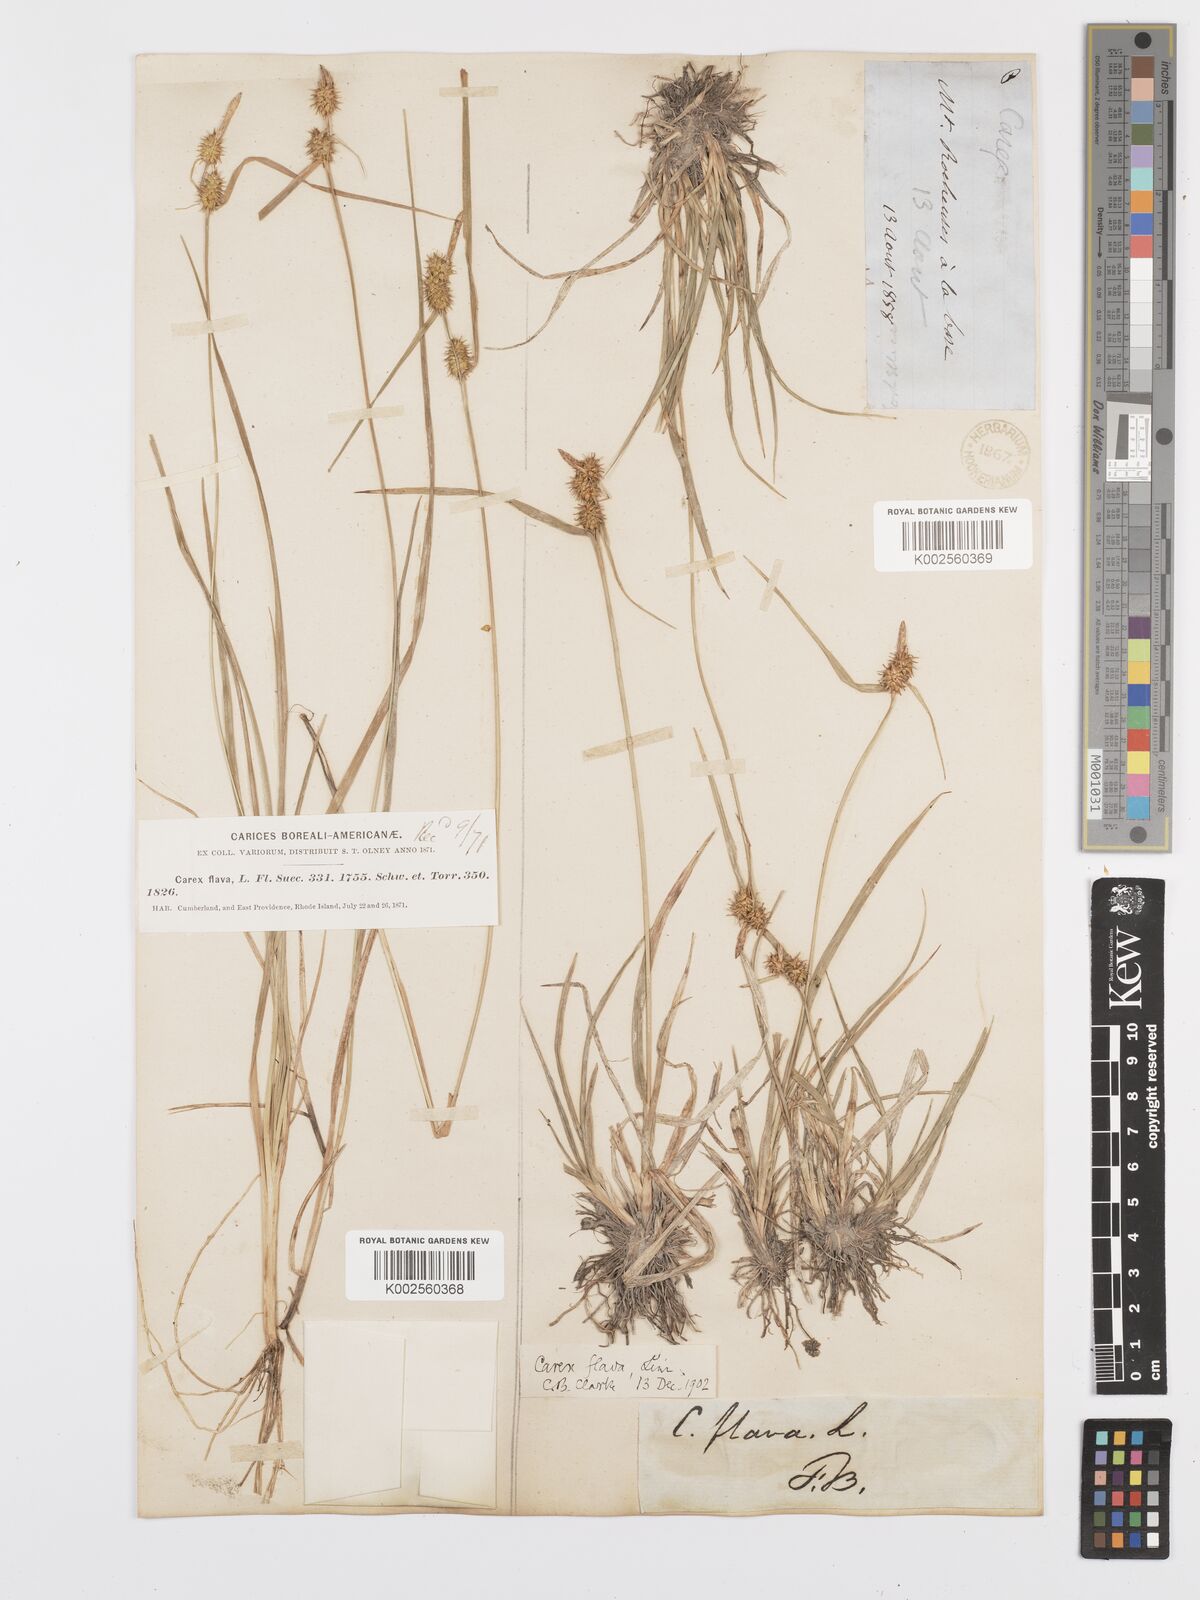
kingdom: Plantae
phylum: Tracheophyta
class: Liliopsida
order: Poales
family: Cyperaceae
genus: Carex
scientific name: Carex lepidocarpa
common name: Long-stalked yellow-sedge
